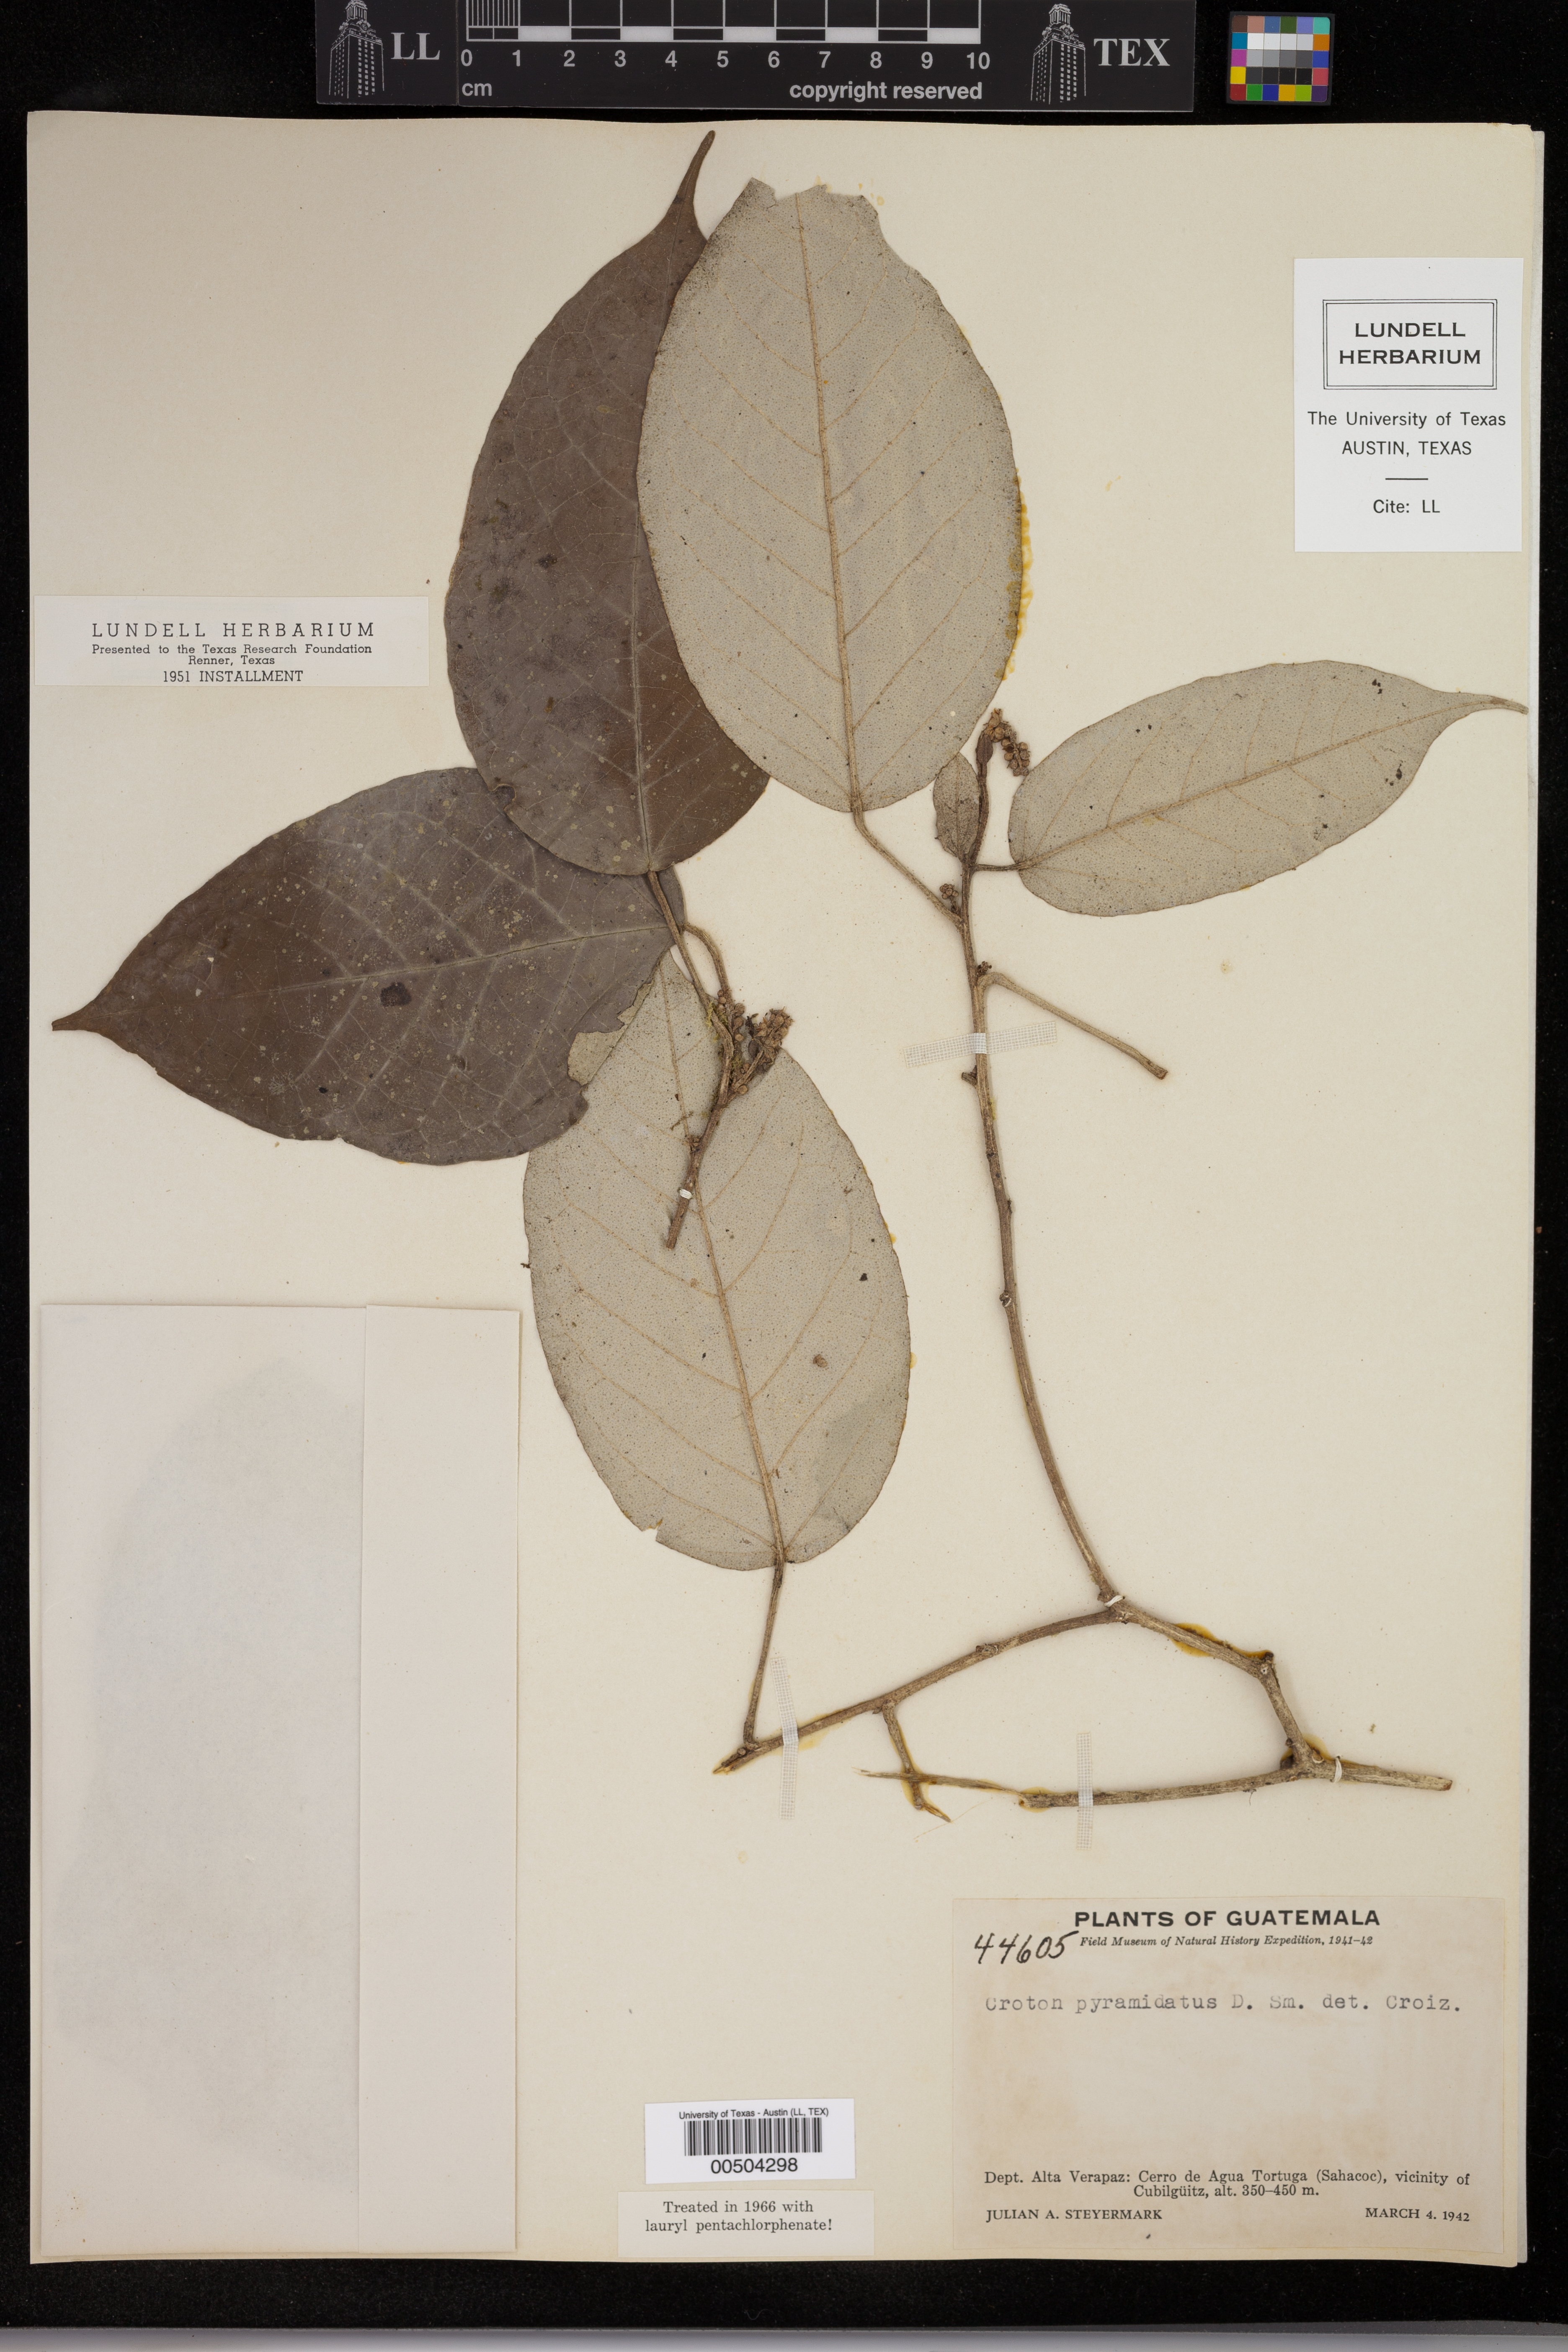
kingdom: Plantae
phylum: Tracheophyta
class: Magnoliopsida
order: Malpighiales
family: Euphorbiaceae
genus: Croton
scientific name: Croton billbergianus
